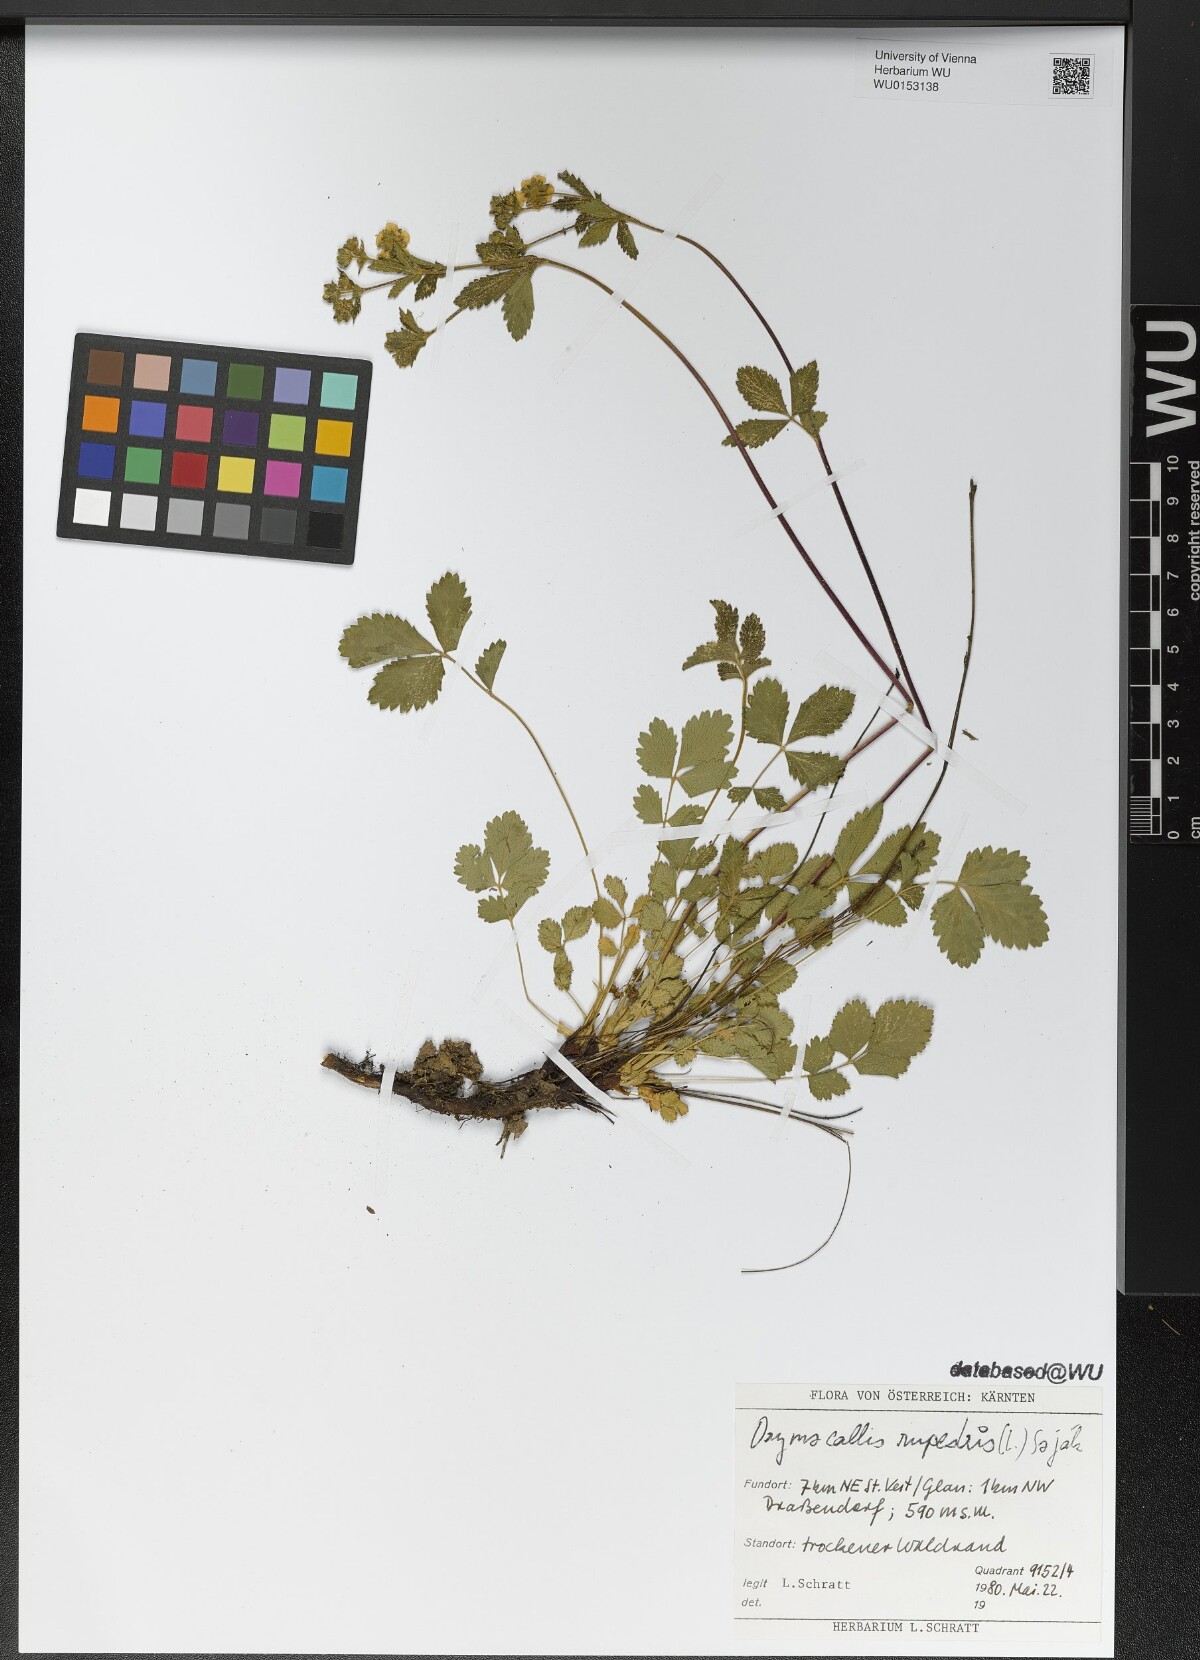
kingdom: Plantae
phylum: Tracheophyta
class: Magnoliopsida
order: Rosales
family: Rosaceae
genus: Drymocallis
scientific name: Drymocallis rupestris
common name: Rock cinquefoil
